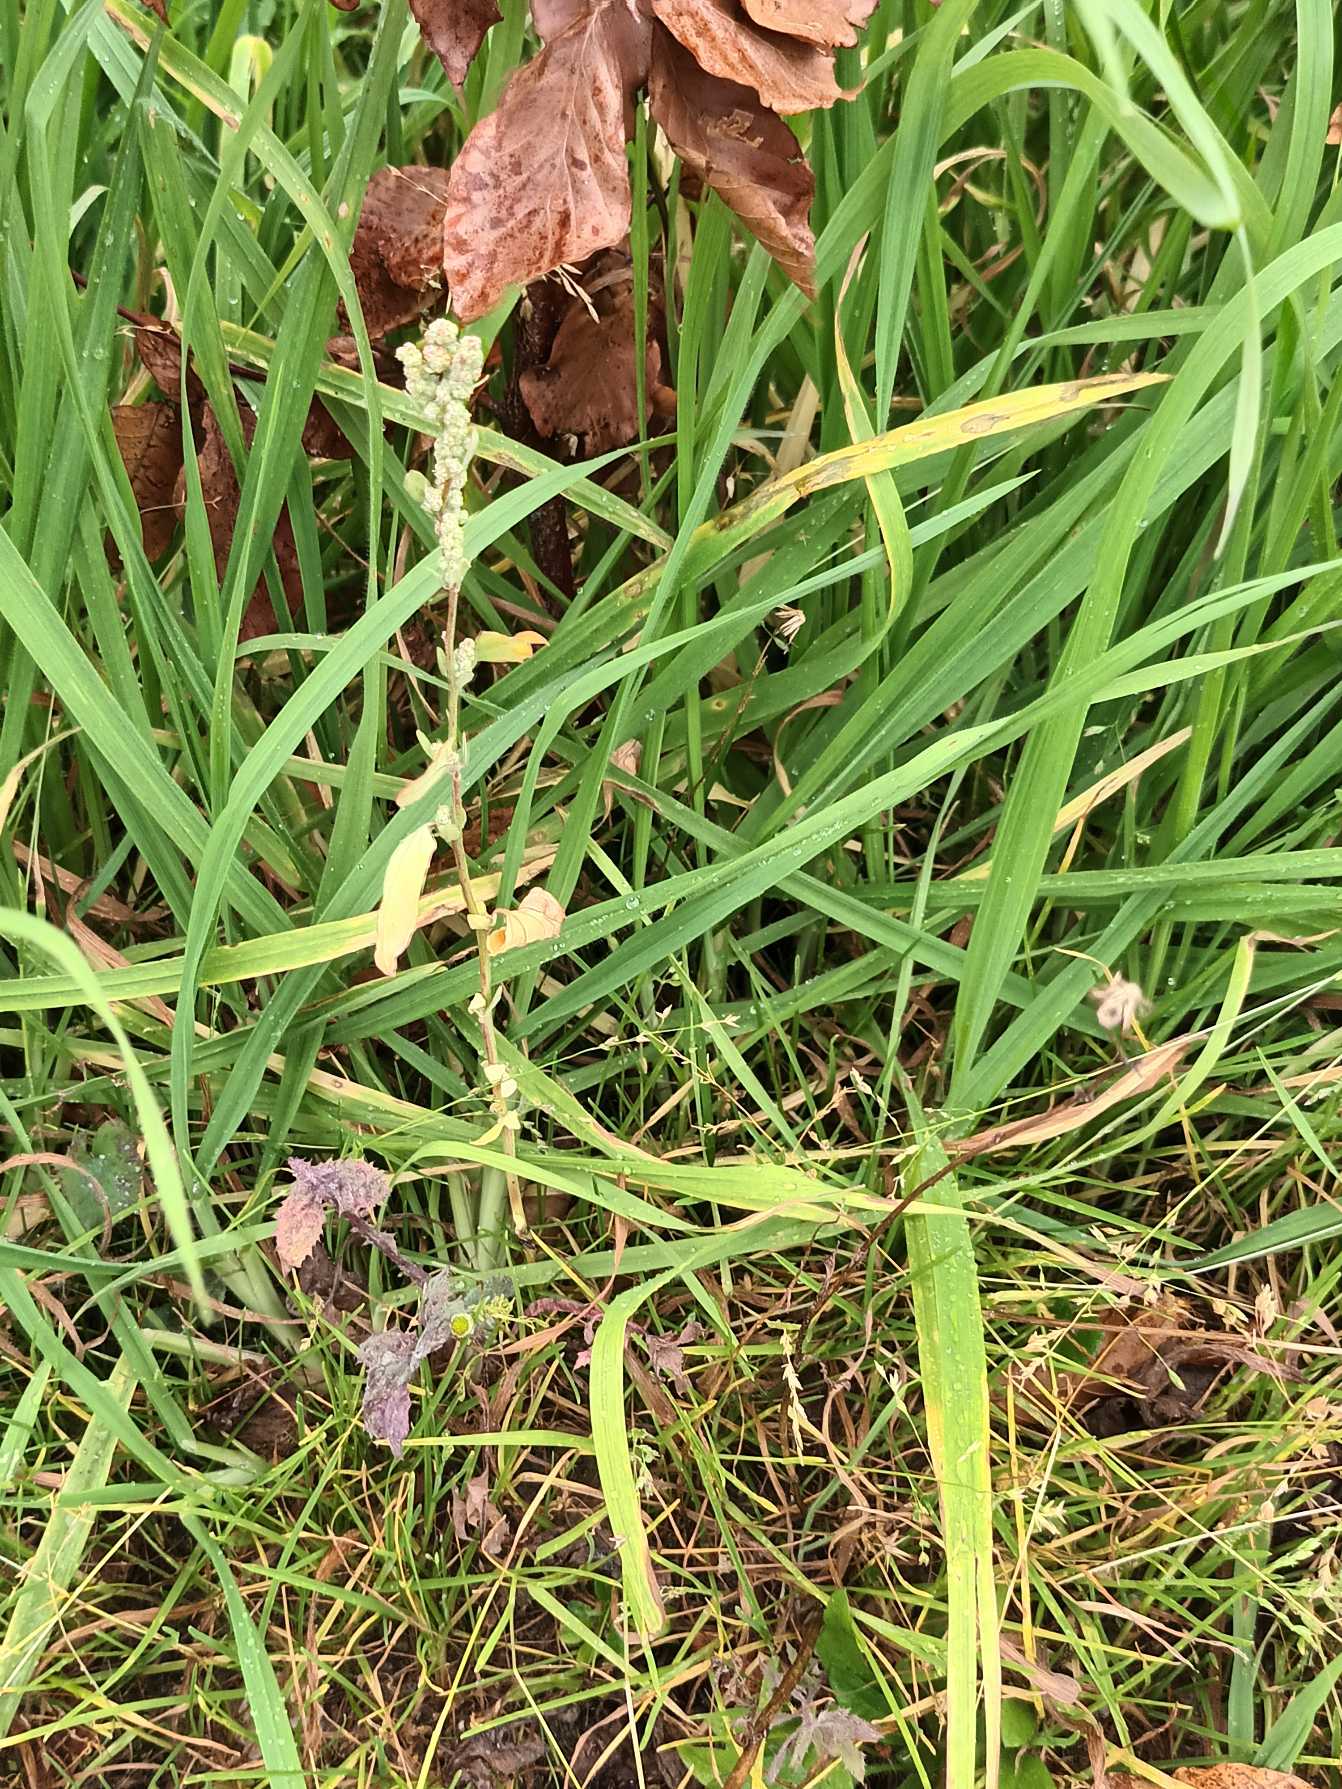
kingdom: Plantae
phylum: Tracheophyta
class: Magnoliopsida
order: Caryophyllales
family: Amaranthaceae
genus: Chenopodium
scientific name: Chenopodium album
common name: Hvidmelet gåsefod
